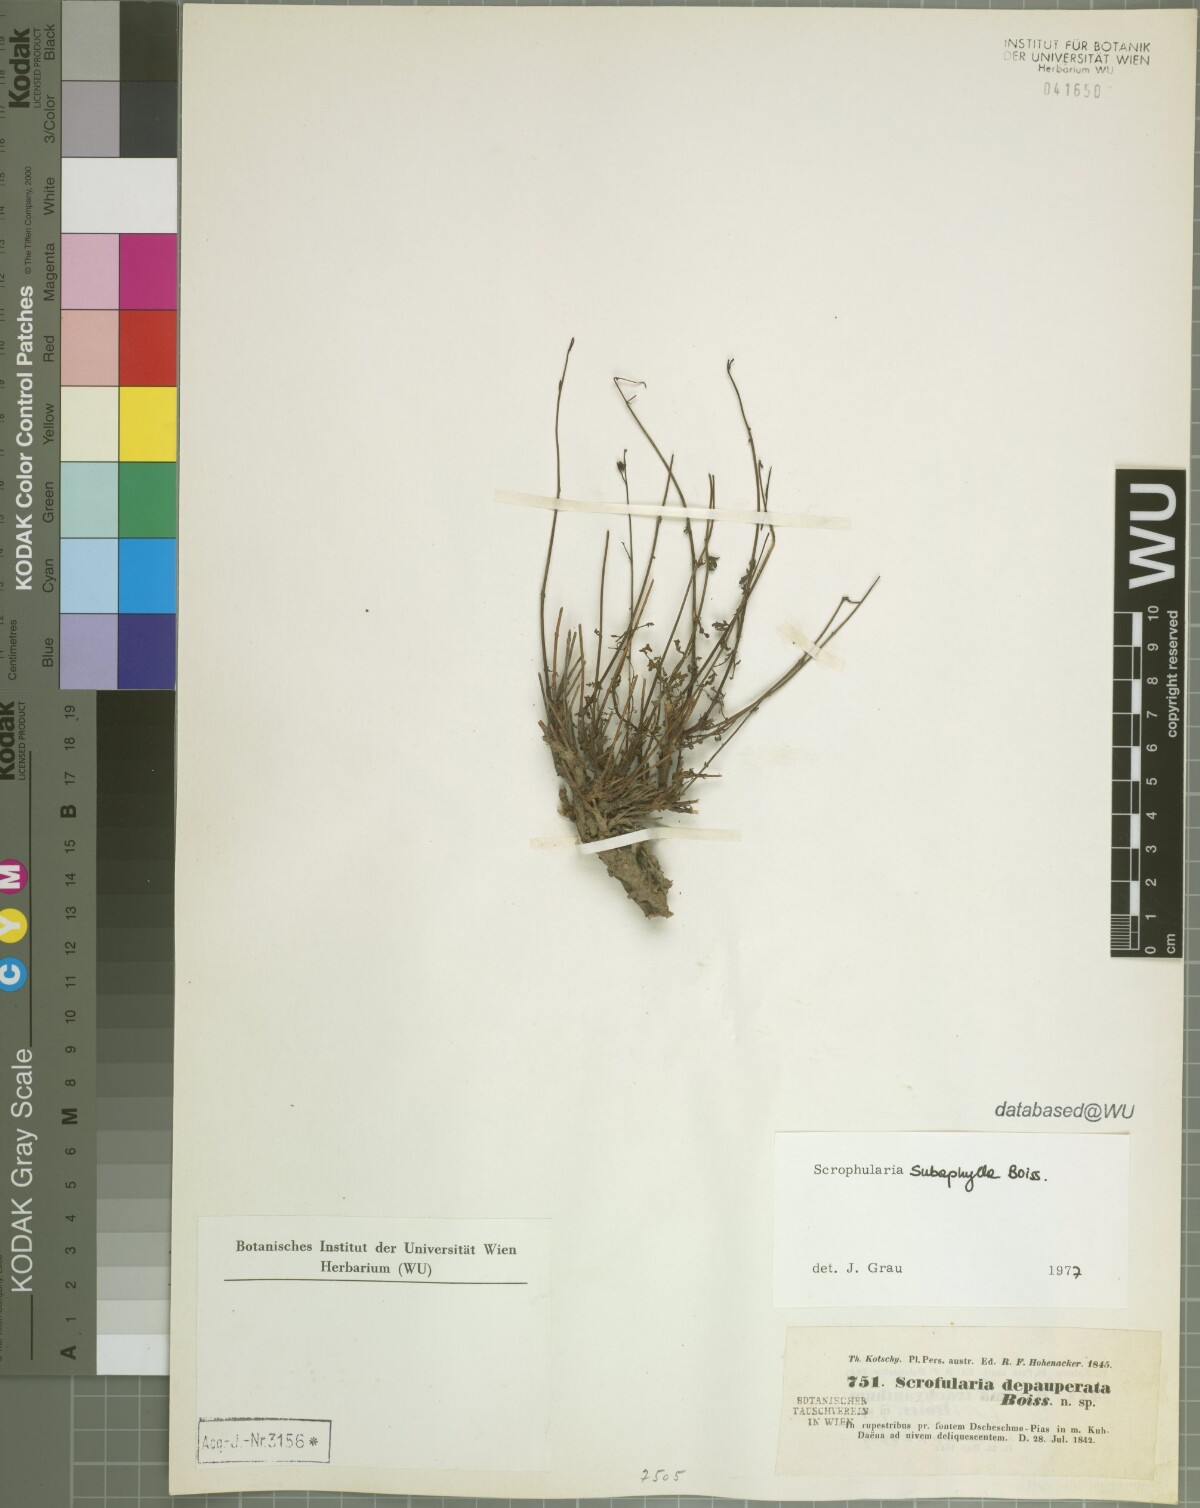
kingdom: Plantae
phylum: Tracheophyta
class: Magnoliopsida
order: Lamiales
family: Scrophulariaceae
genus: Scrophularia
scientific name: Scrophularia depauperata
